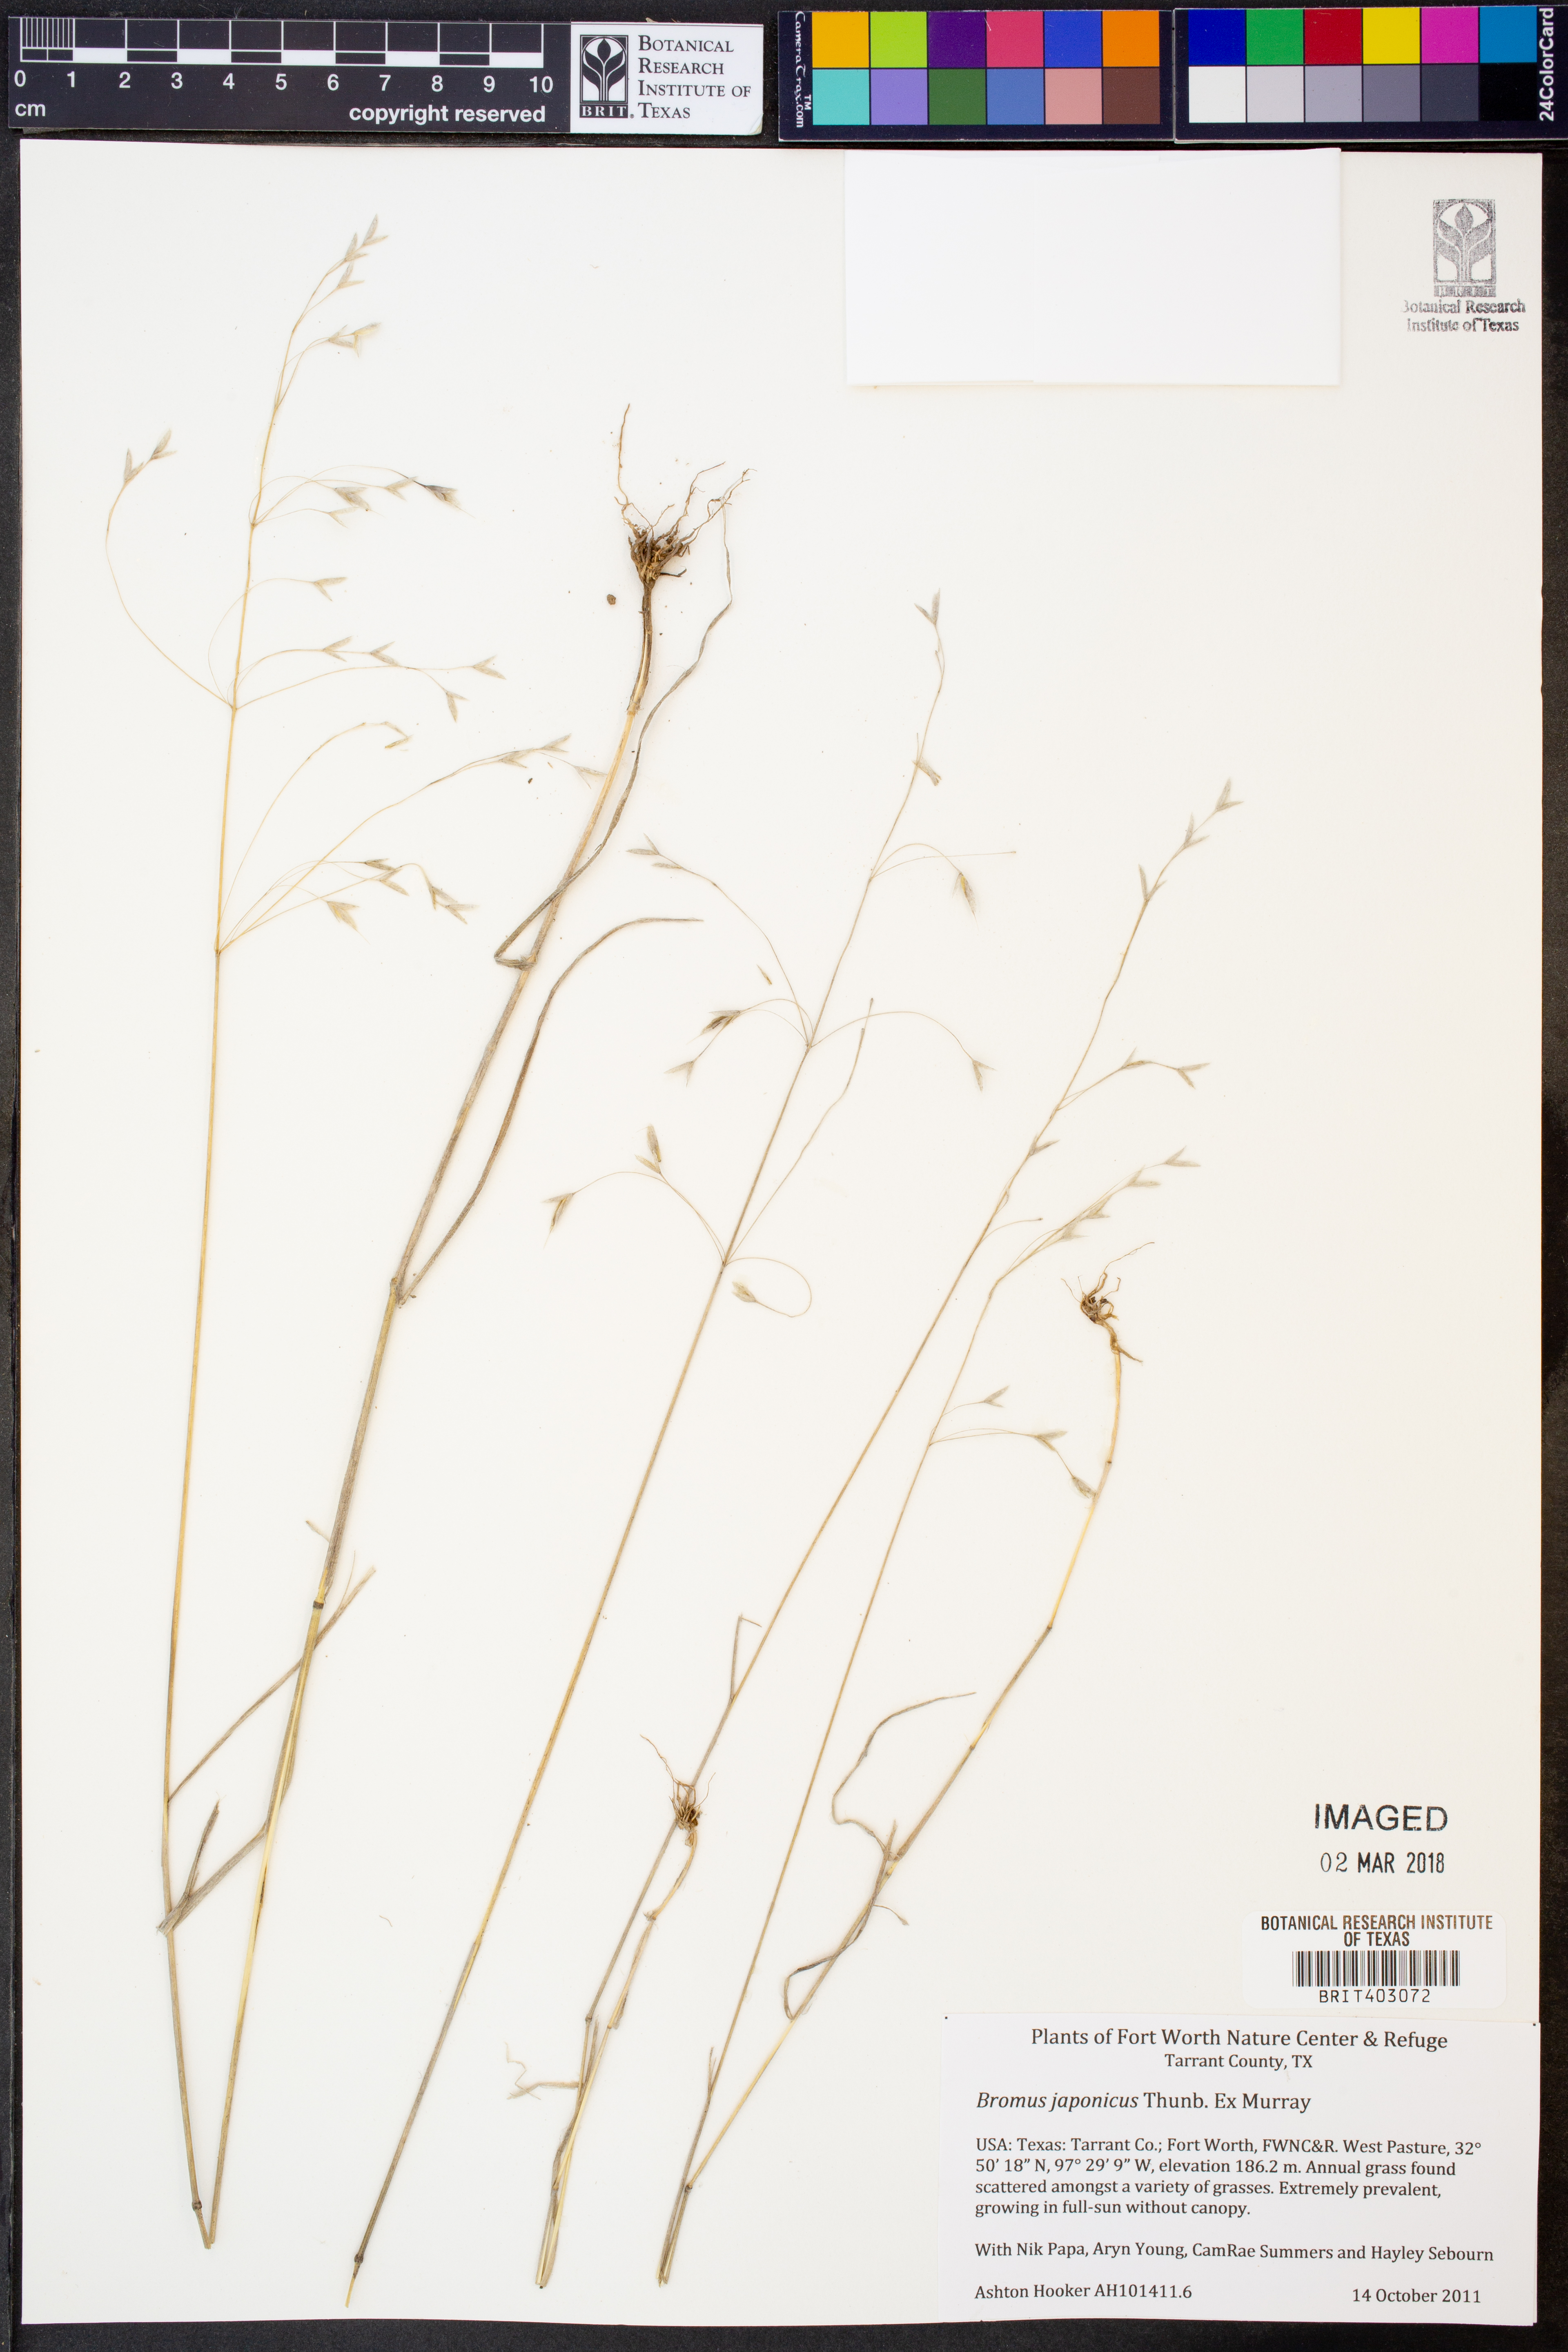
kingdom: Plantae
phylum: Tracheophyta
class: Liliopsida
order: Poales
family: Poaceae
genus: Bromus
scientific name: Bromus japonicus
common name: Japanese brome
